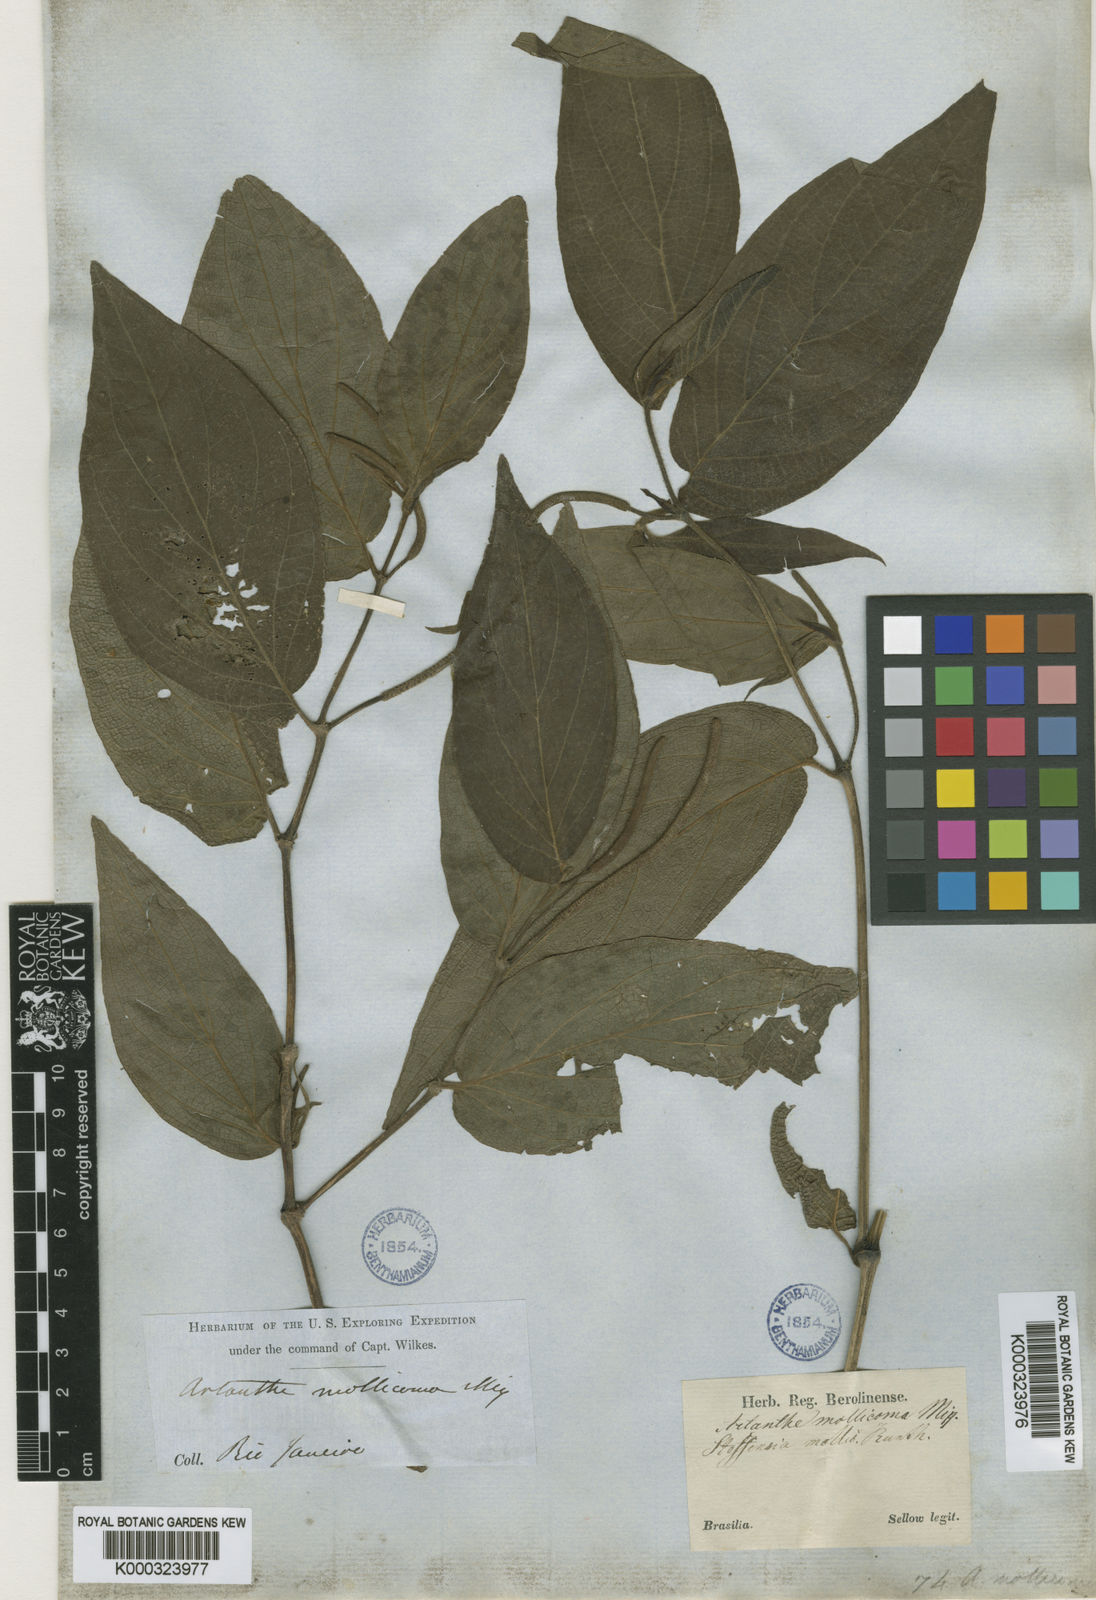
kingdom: Plantae
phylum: Tracheophyta
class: Magnoliopsida
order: Piperales
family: Piperaceae
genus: Piper
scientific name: Piper
